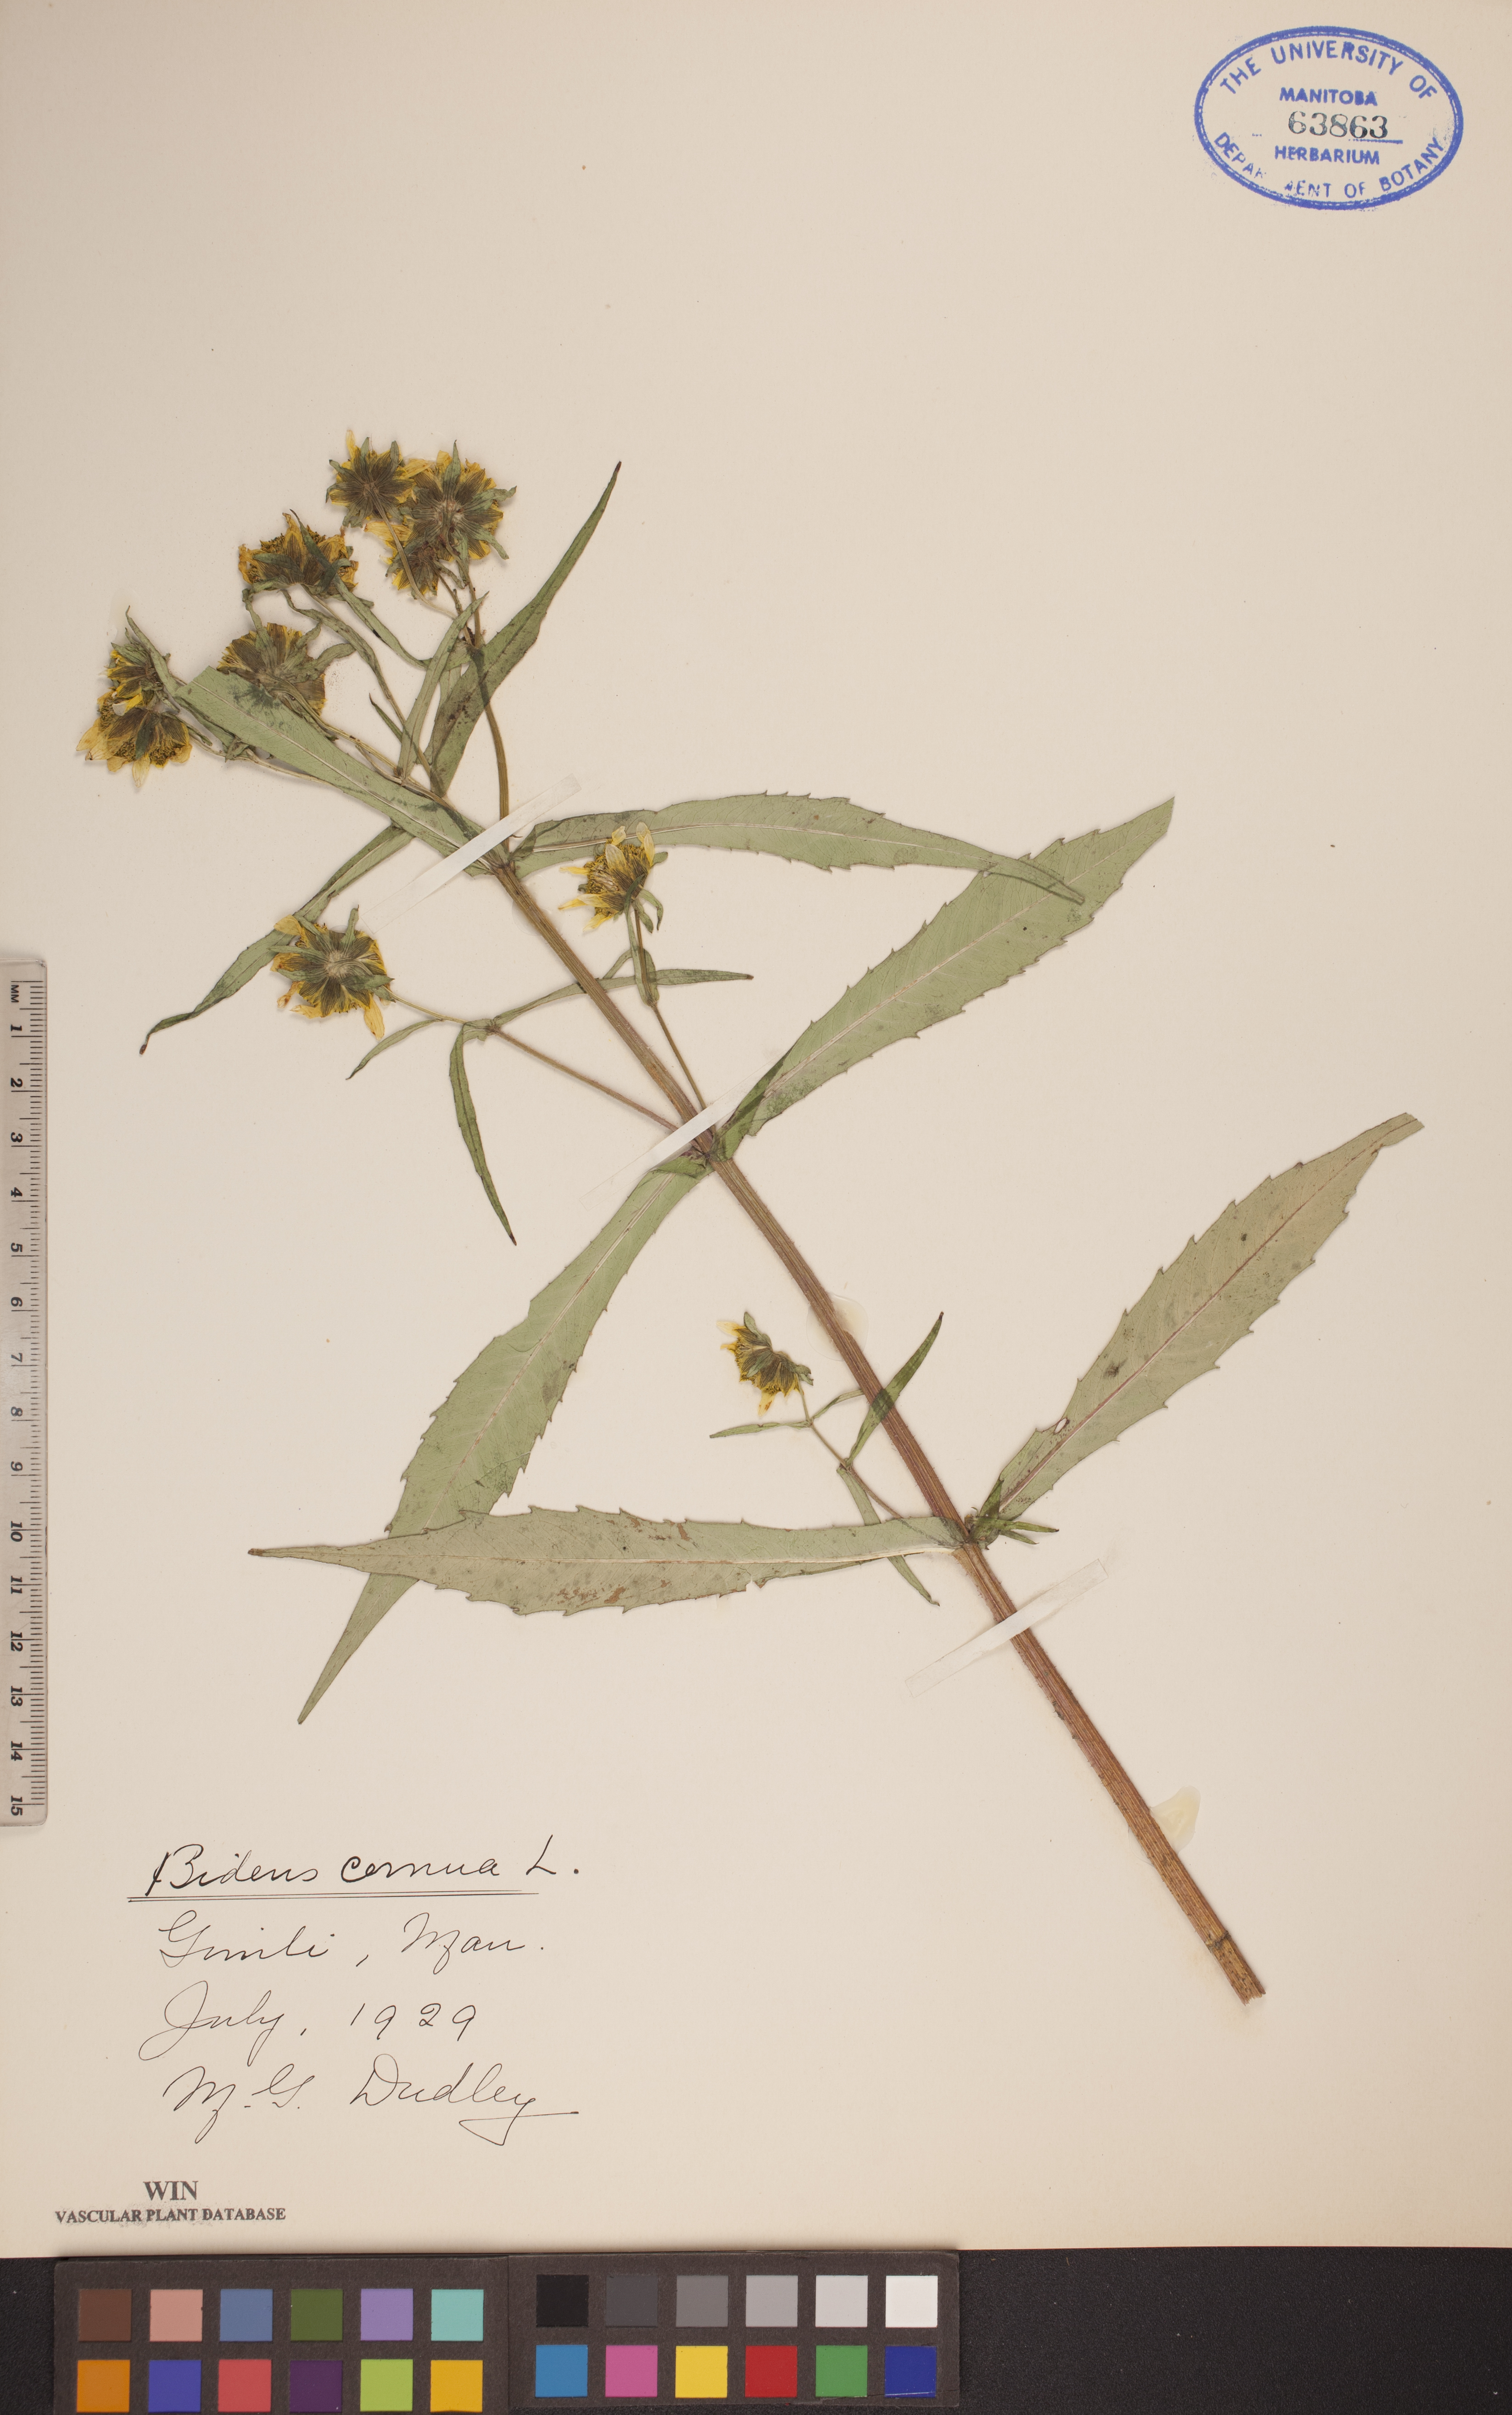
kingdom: Plantae
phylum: Tracheophyta
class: Magnoliopsida
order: Asterales
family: Asteraceae
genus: Bidens
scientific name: Bidens cernua
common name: Nodding bur-marigold
